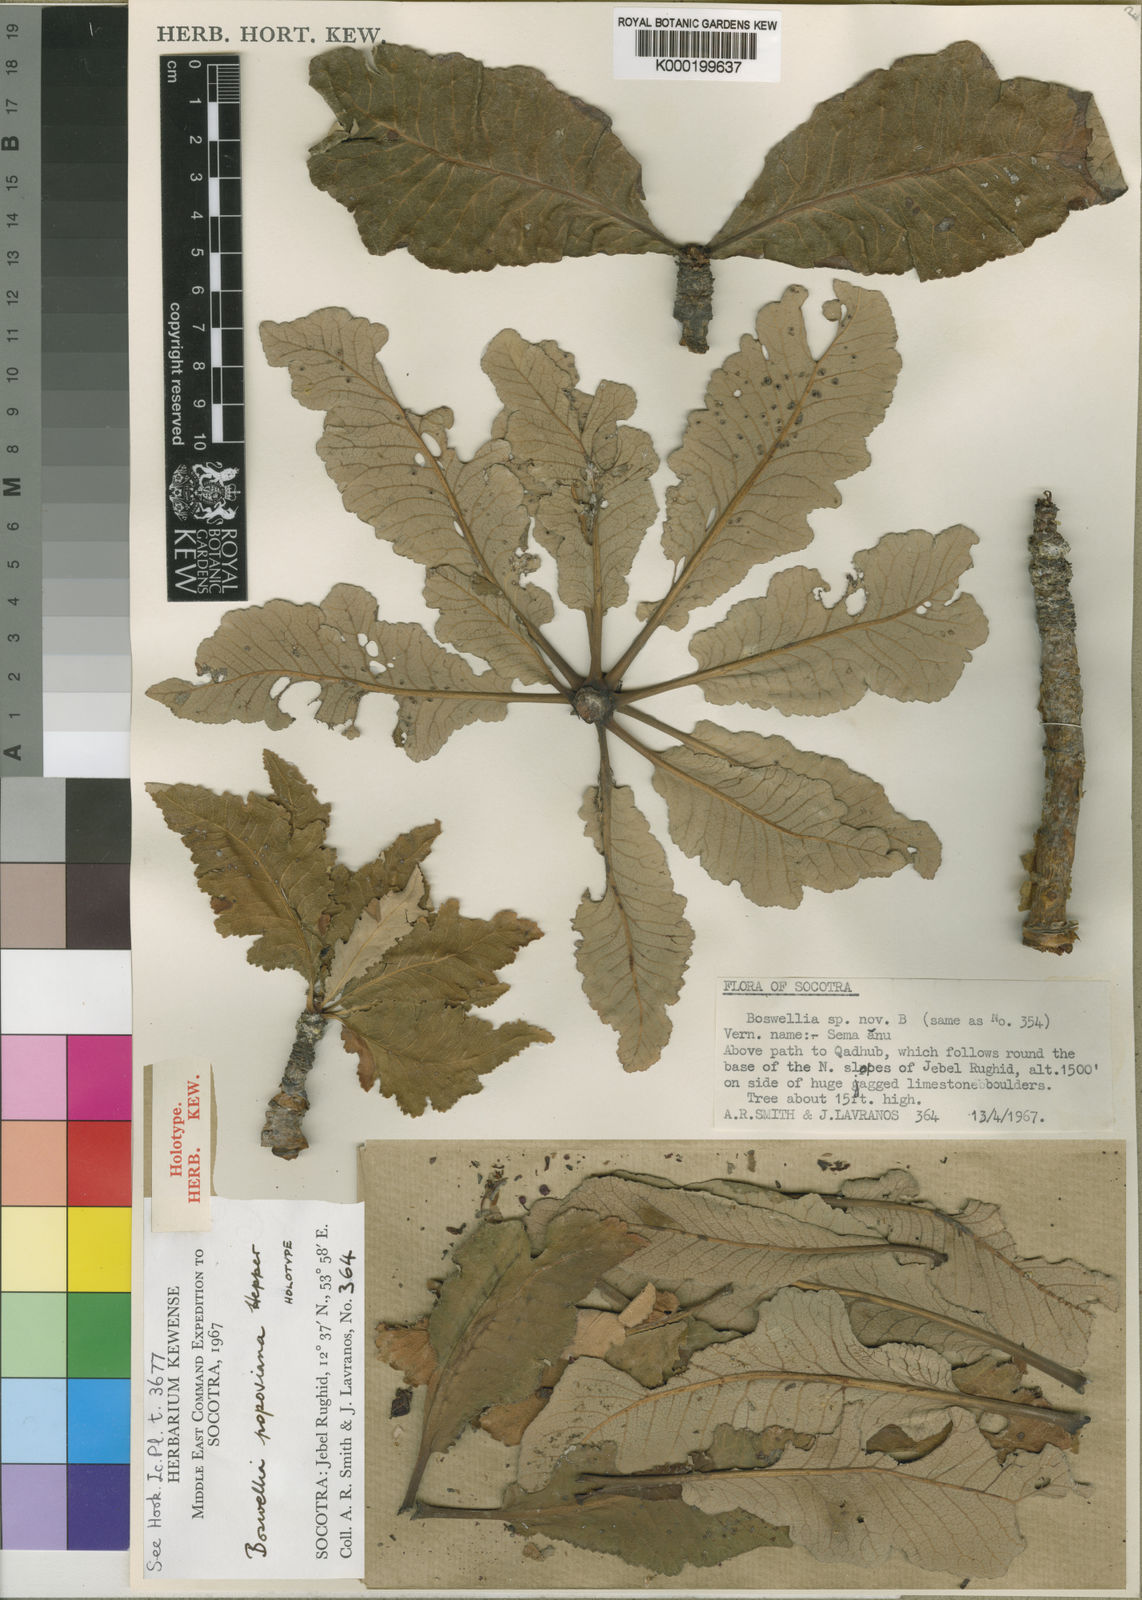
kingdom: Plantae
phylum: Tracheophyta
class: Magnoliopsida
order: Sapindales
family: Burseraceae
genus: Boswellia
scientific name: Boswellia popoviana
